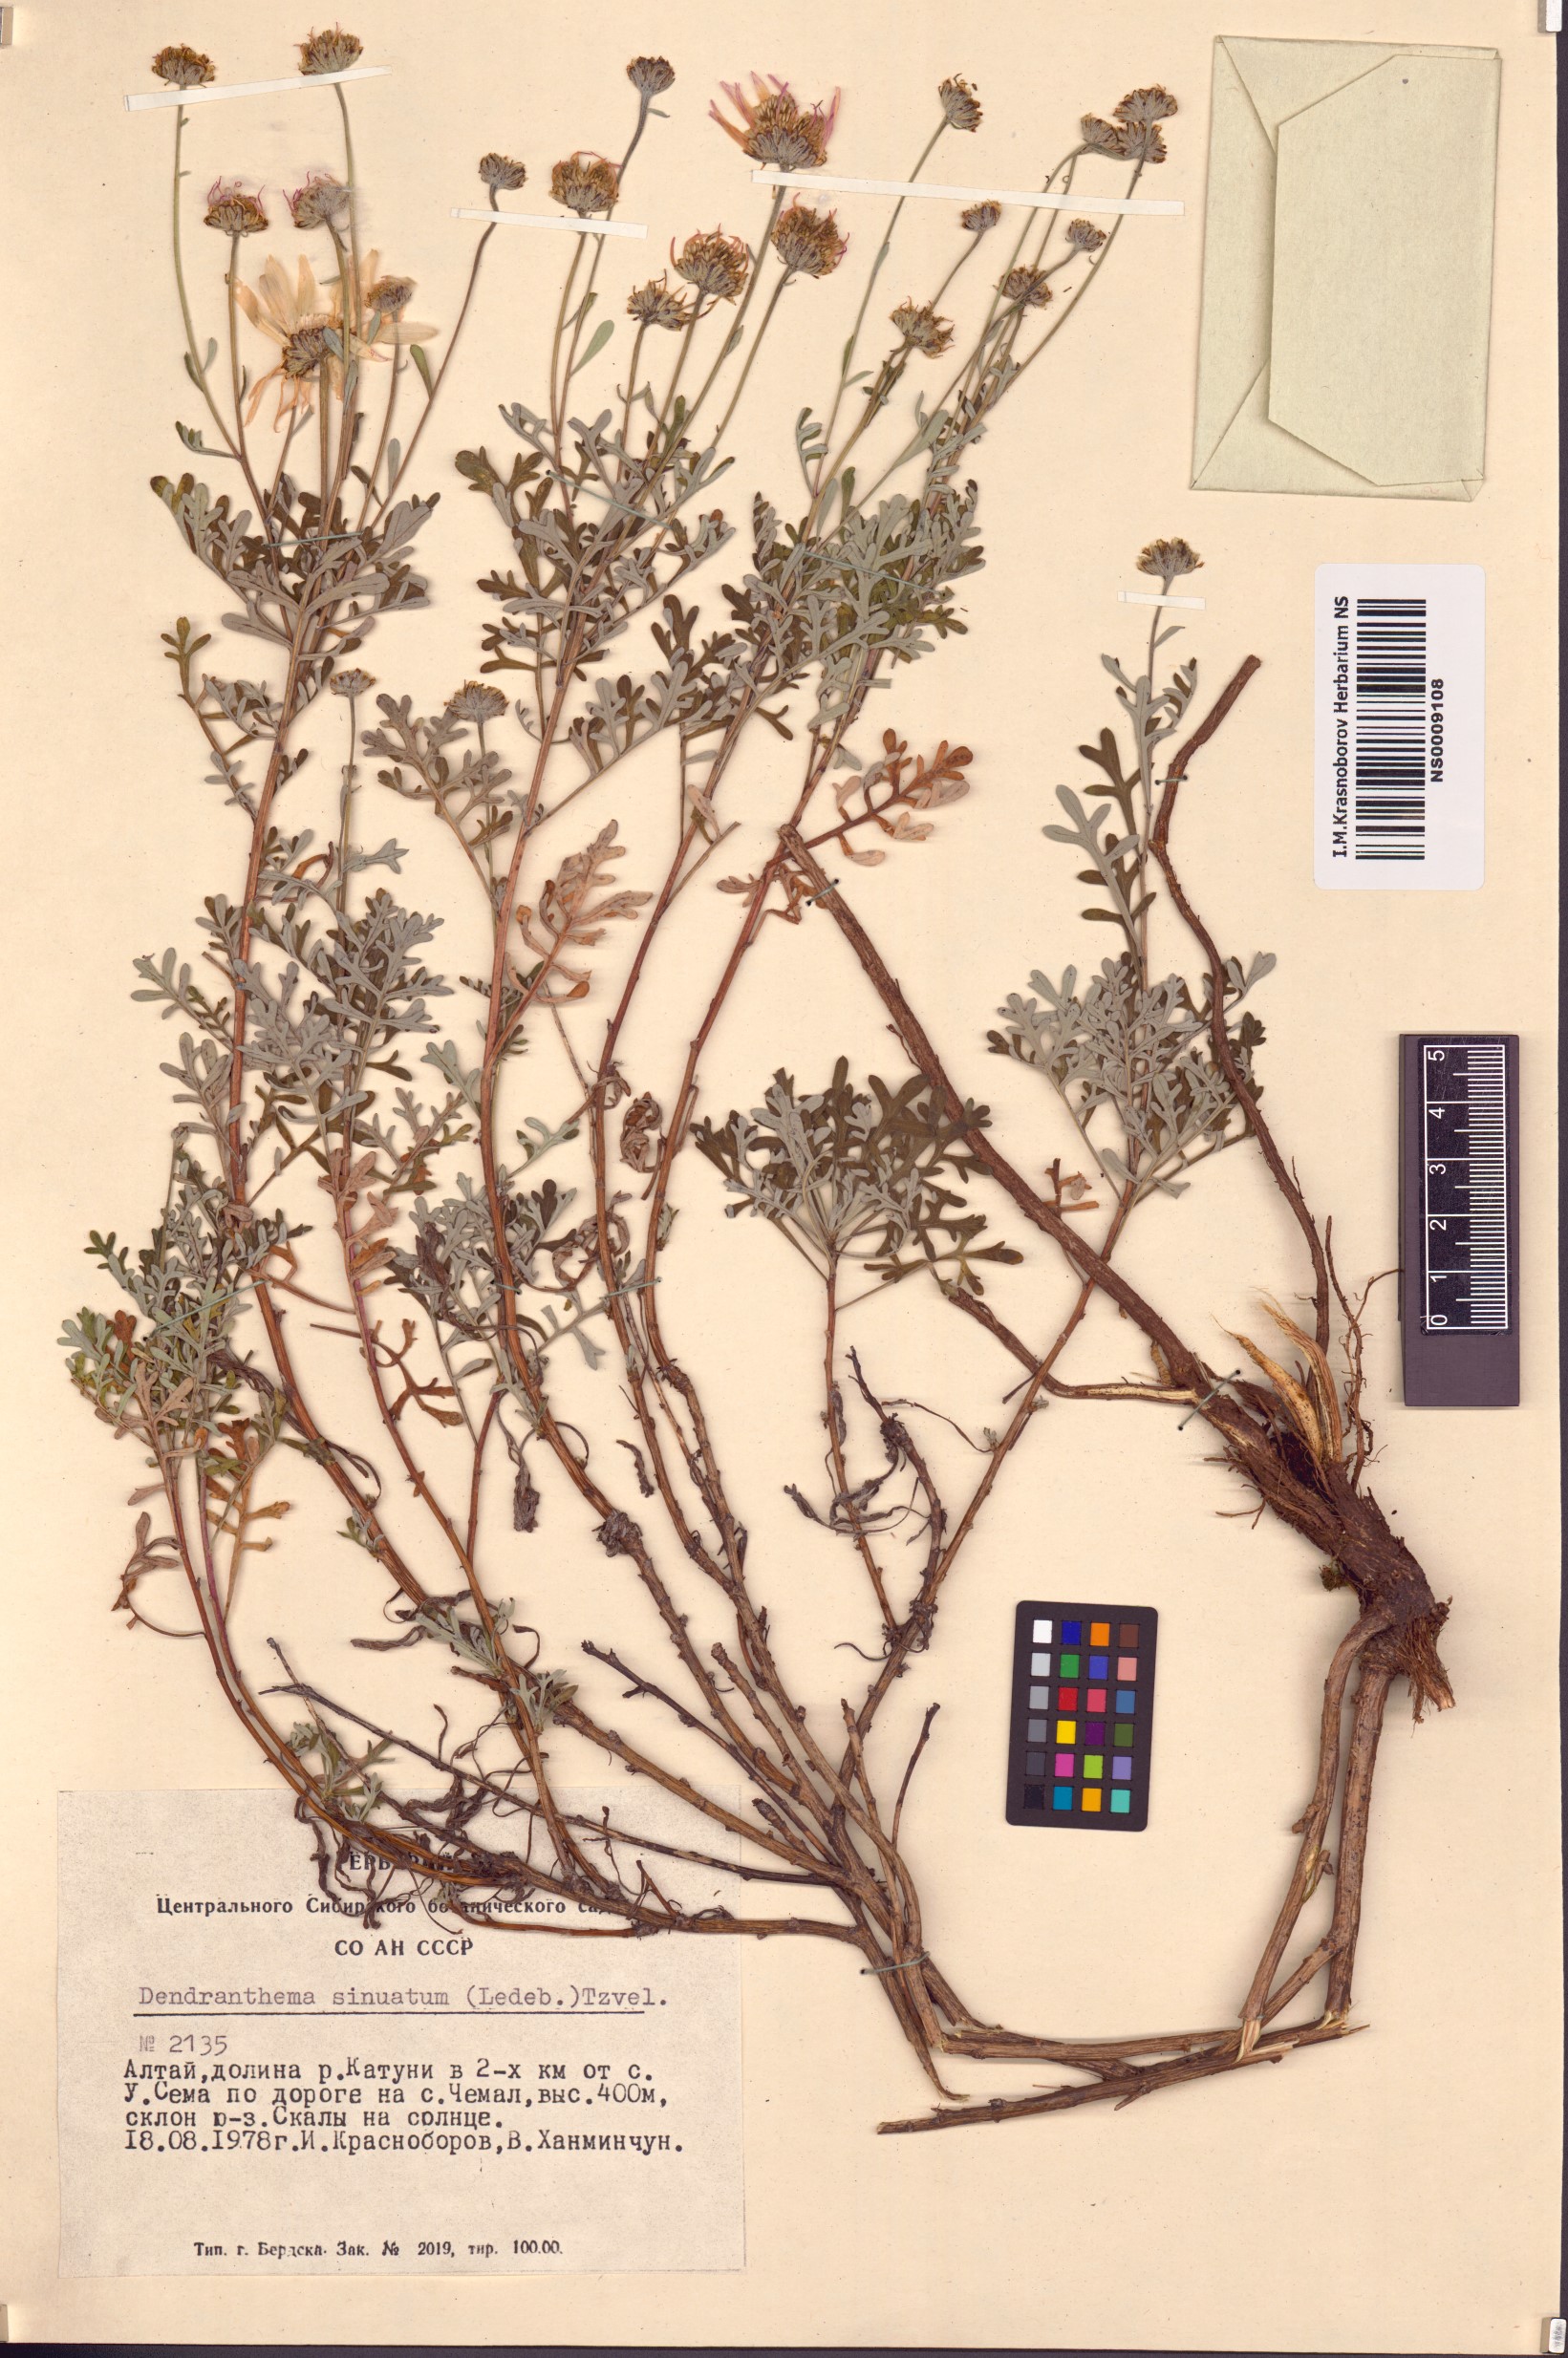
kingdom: Plantae
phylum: Tracheophyta
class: Magnoliopsida
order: Asterales
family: Asteraceae
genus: Chrysanthemum
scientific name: Chrysanthemum sinuatum
